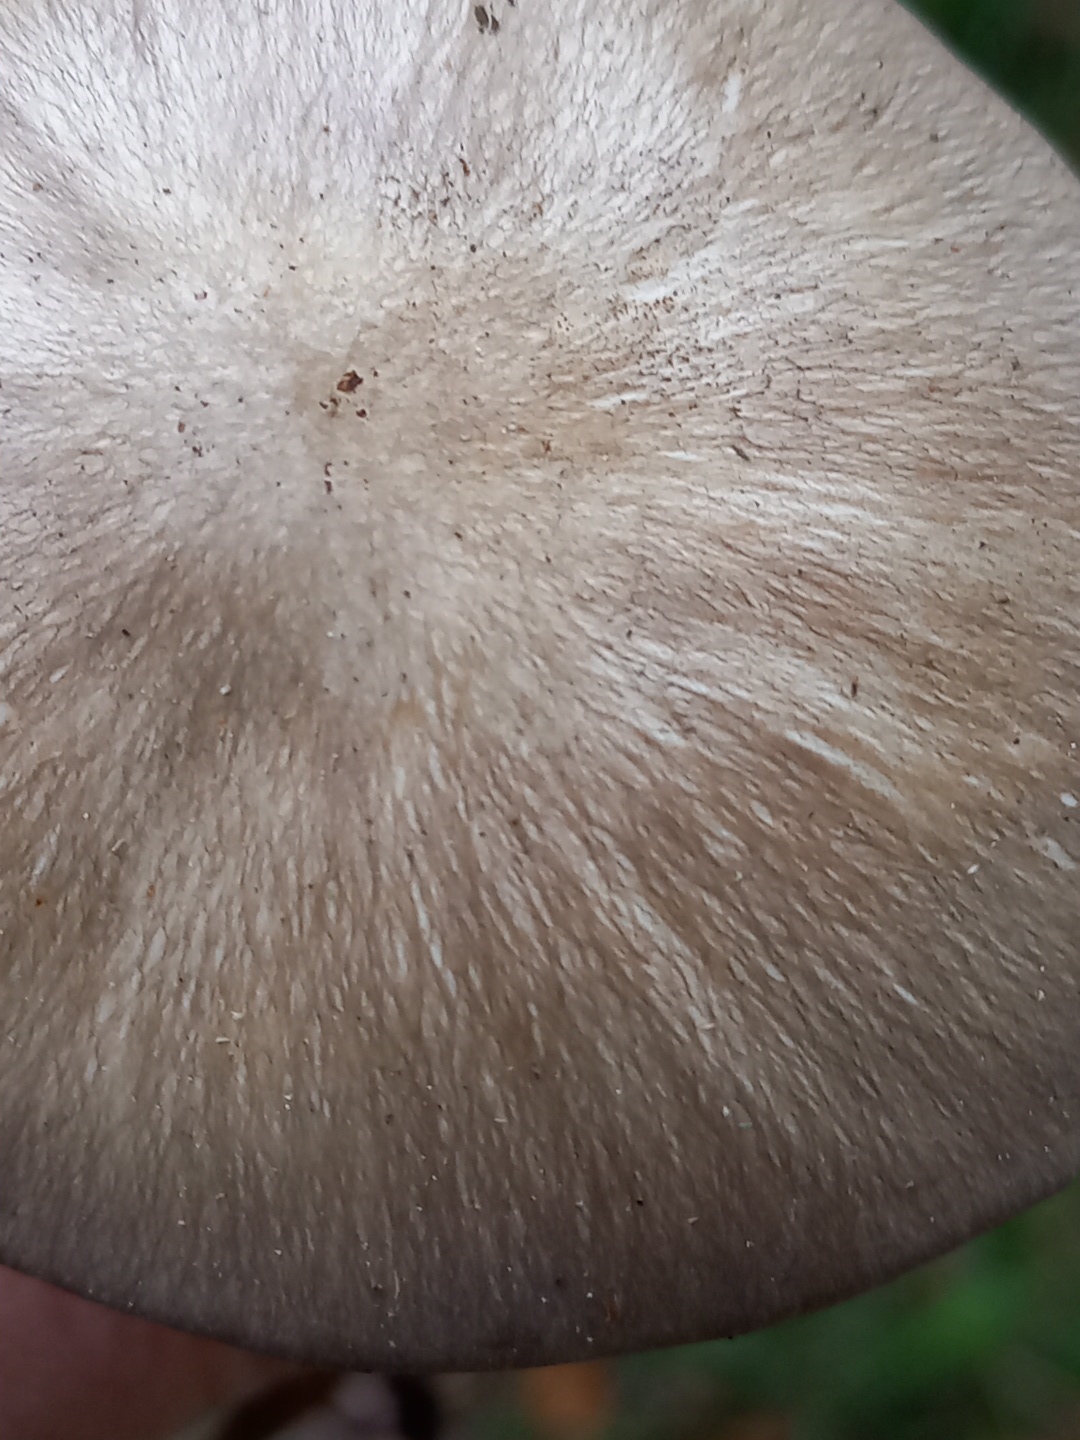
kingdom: Fungi
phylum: Basidiomycota
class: Agaricomycetes
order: Agaricales
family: Tricholomataceae
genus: Megacollybia
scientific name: Megacollybia platyphylla
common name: bredbladet væbnerhat
